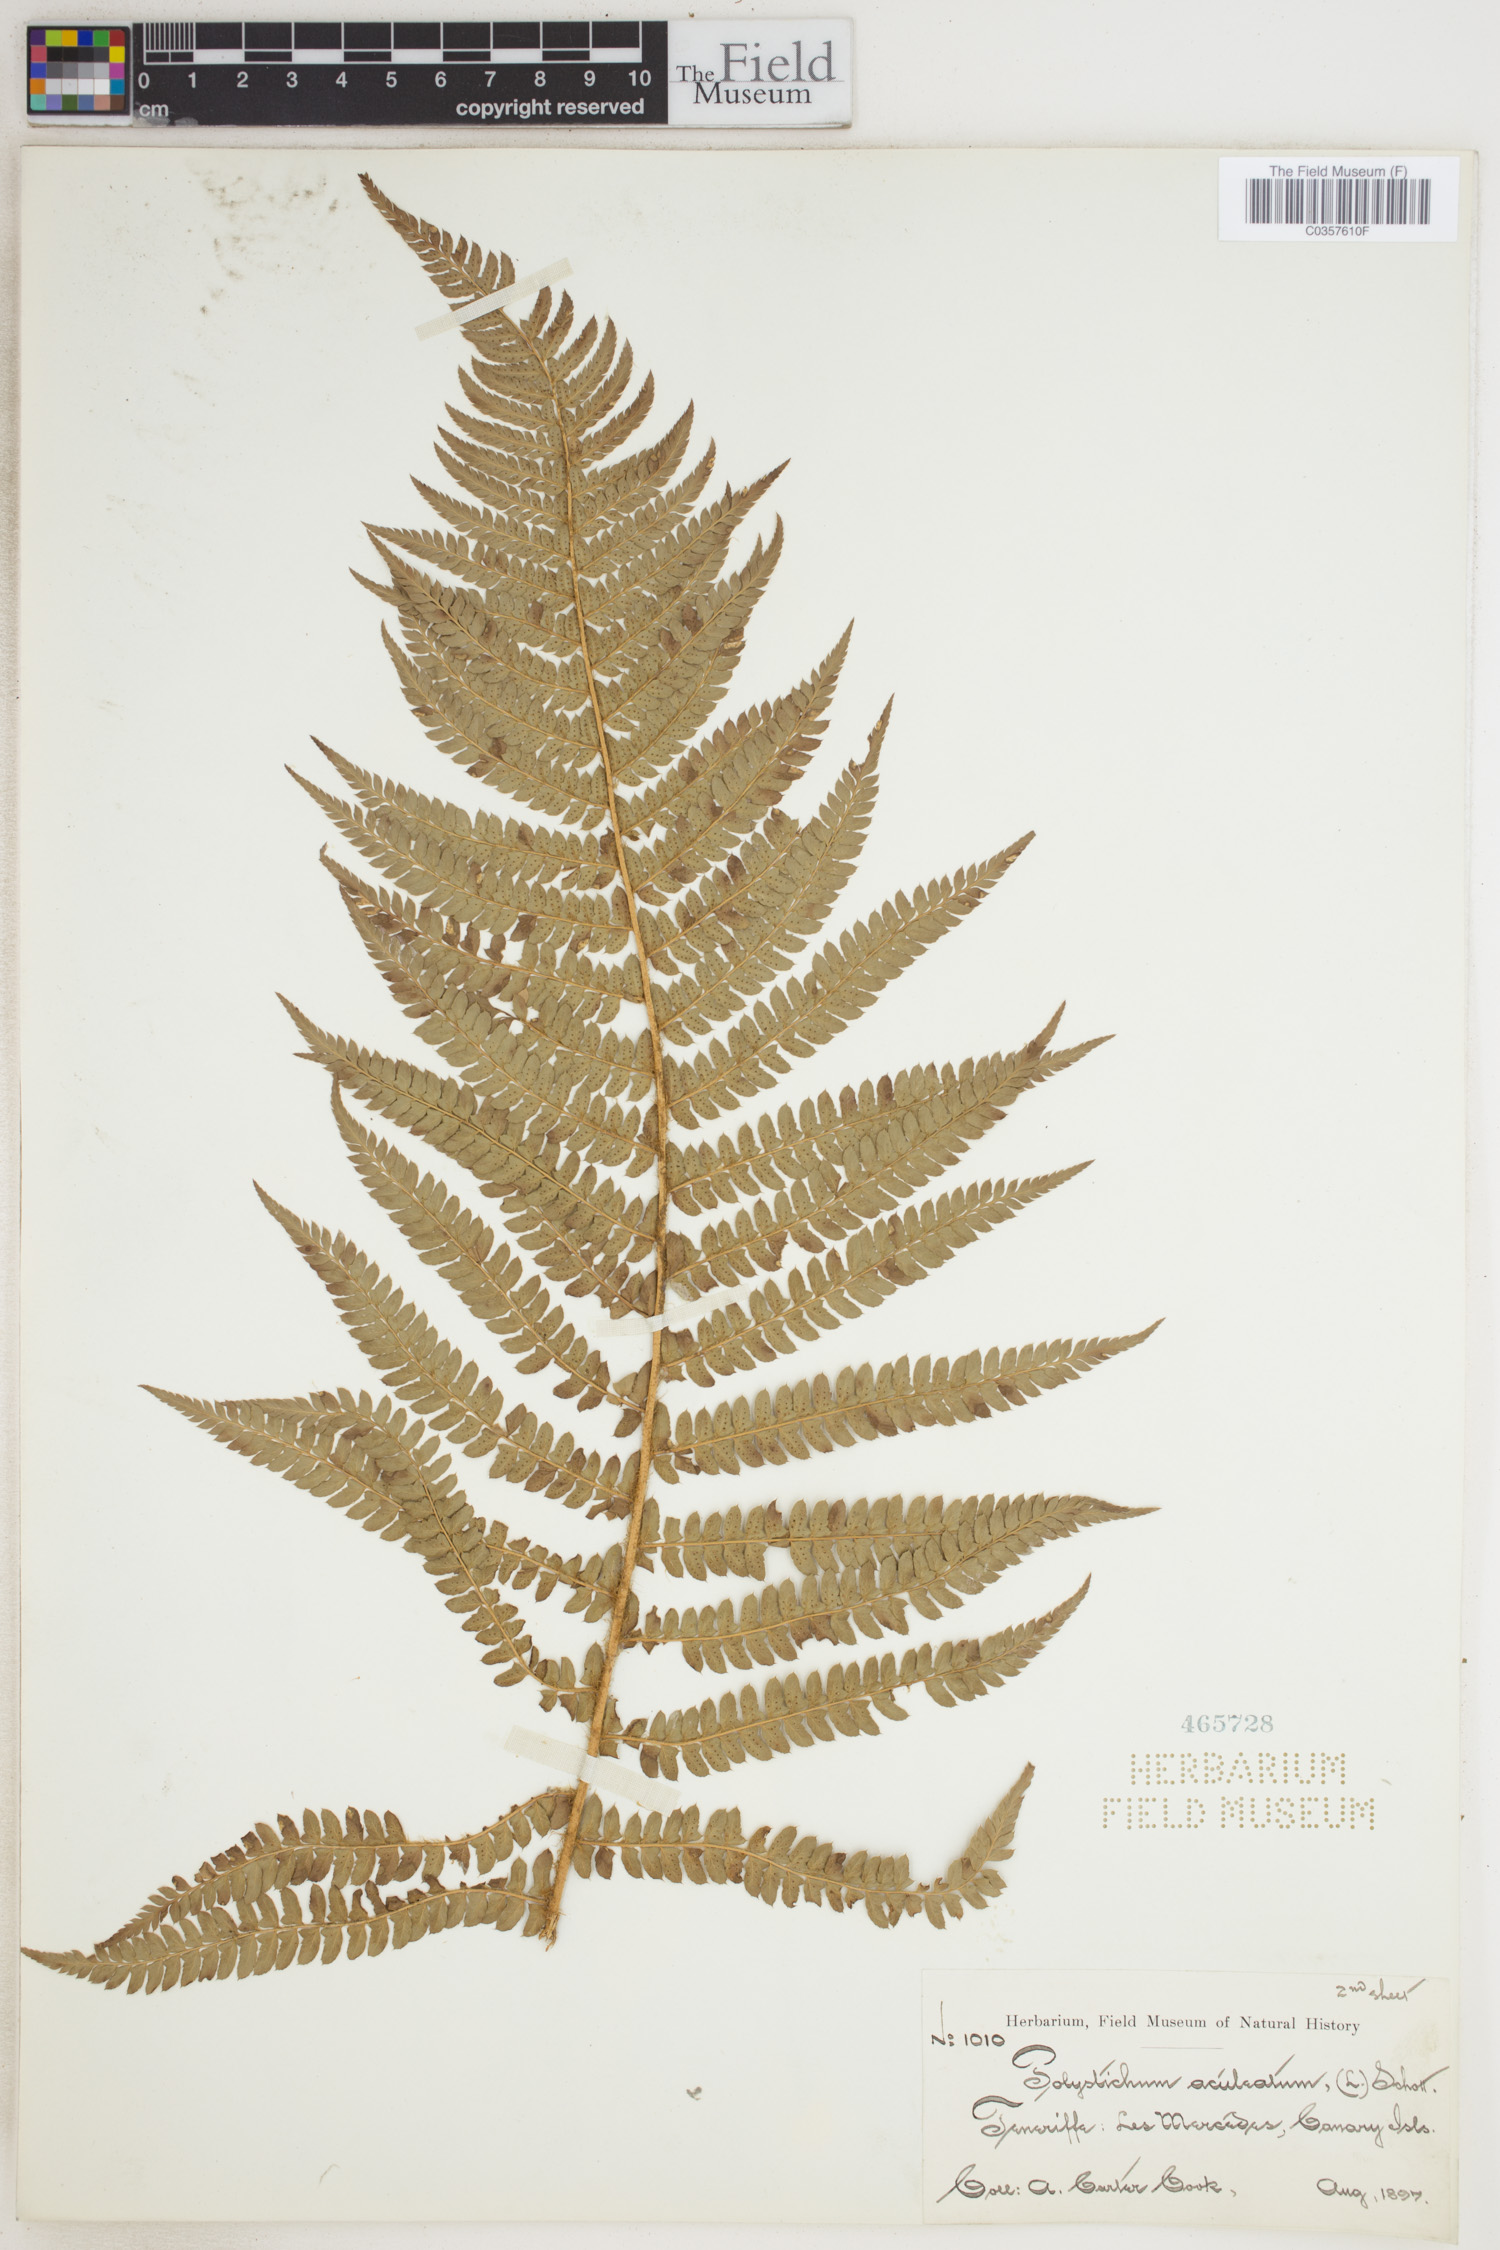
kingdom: Plantae
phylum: Tracheophyta
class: Polypodiopsida
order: Polypodiales
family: Dryopteridaceae
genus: Polystichum
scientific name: Polystichum aculeatum
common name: Hard shield-fern
